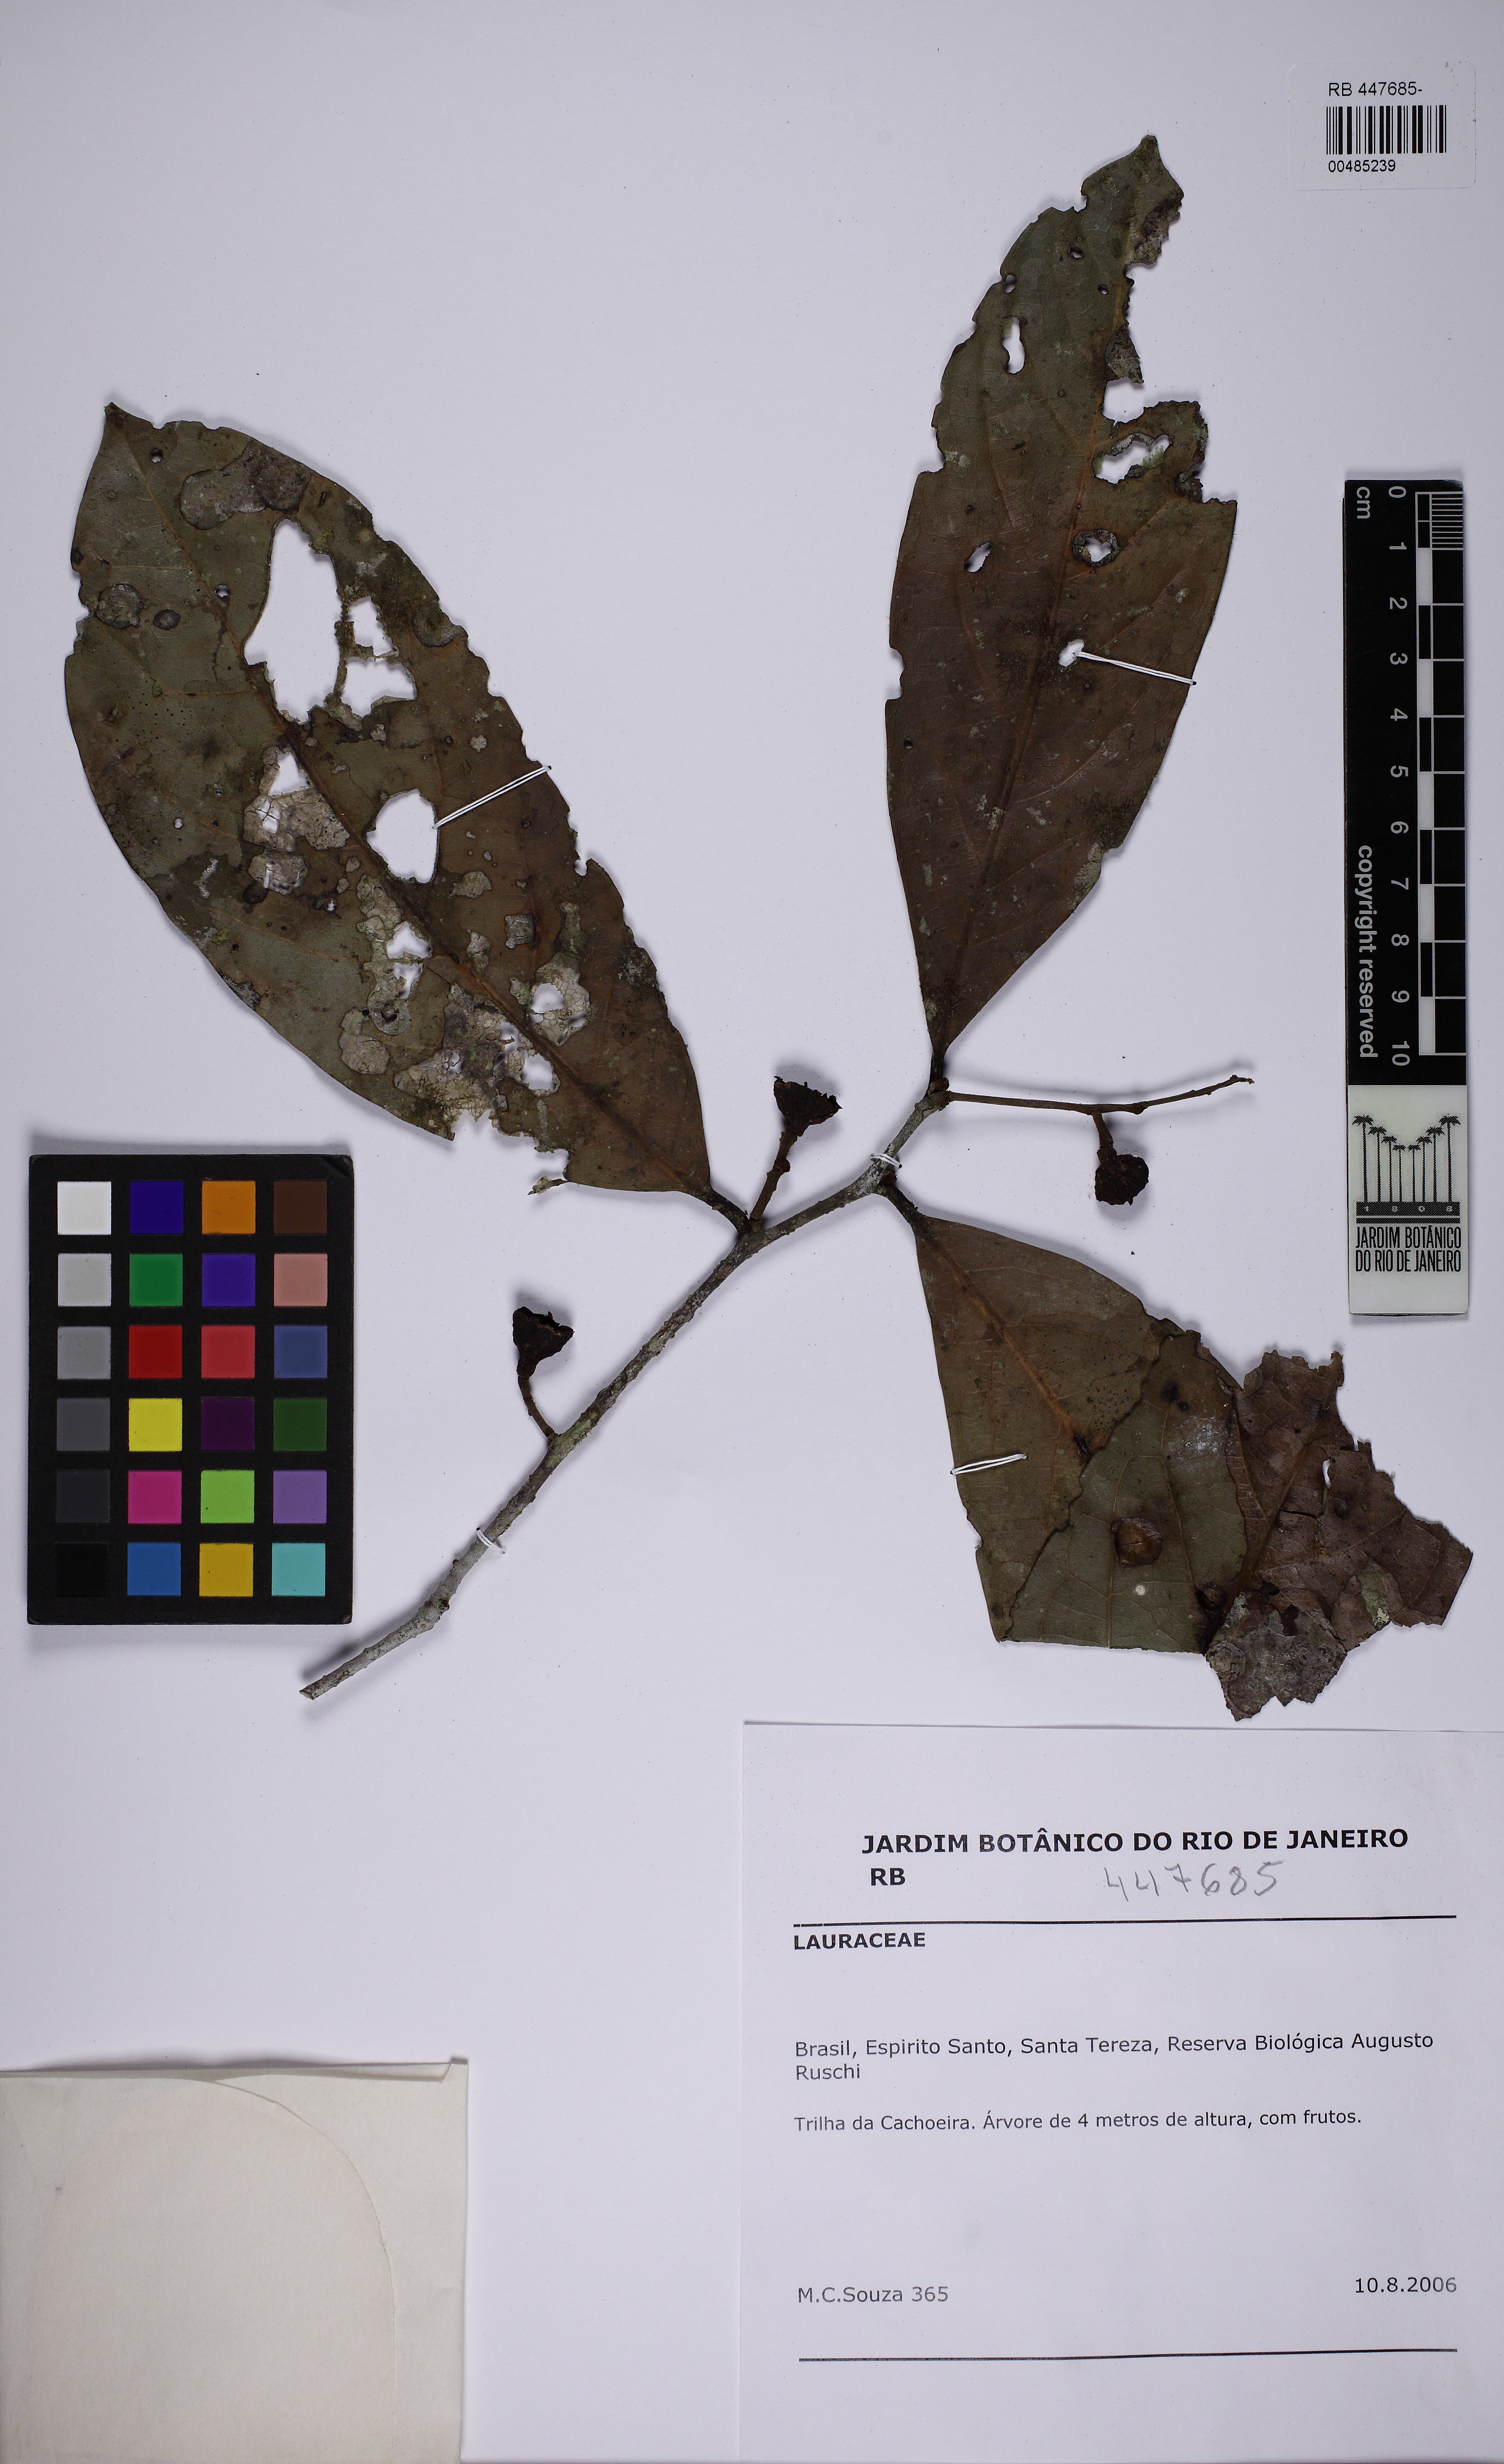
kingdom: Plantae
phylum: Tracheophyta
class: Magnoliopsida
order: Laurales
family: Lauraceae
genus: Ocotea
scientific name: Ocotea leucoxylon
